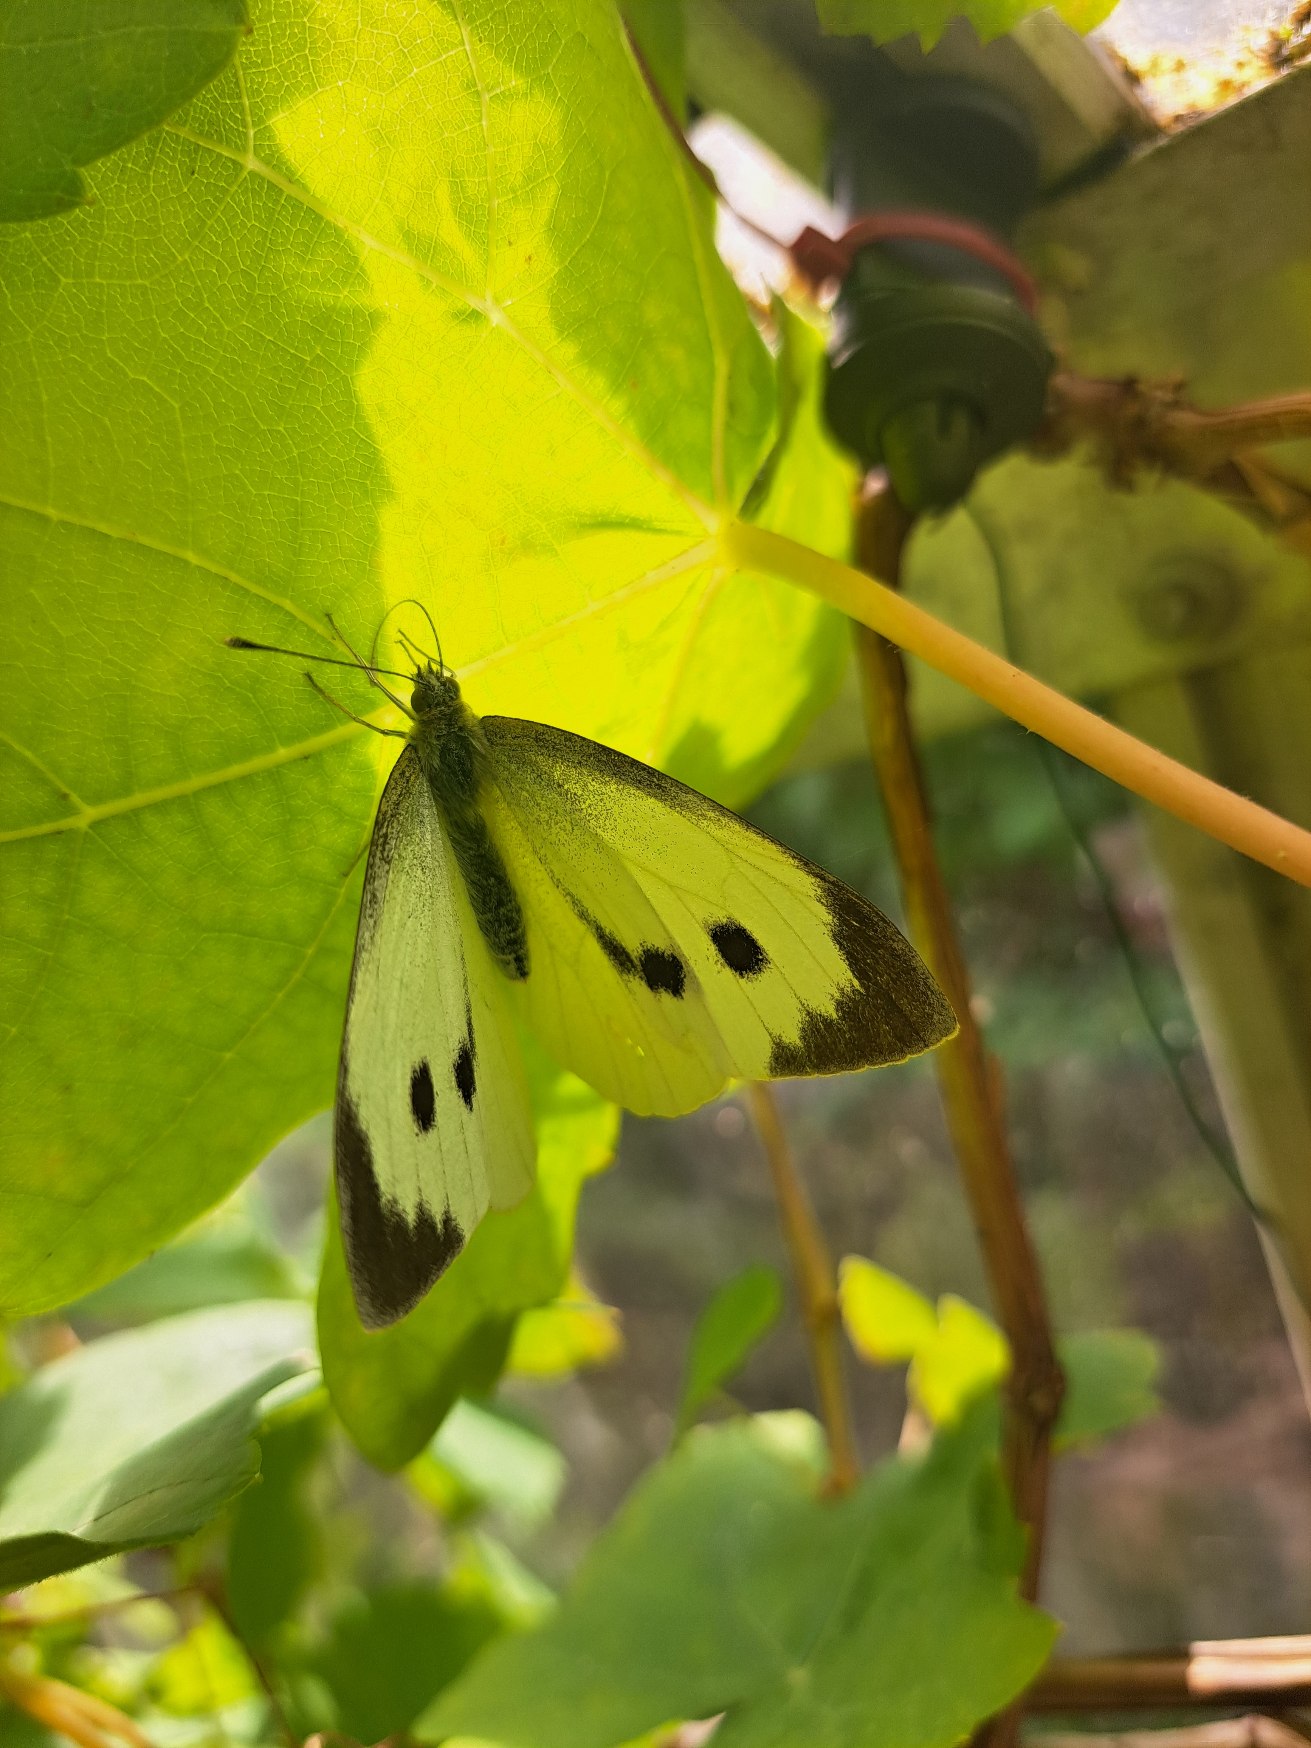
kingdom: Animalia
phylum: Arthropoda
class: Insecta
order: Lepidoptera
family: Pieridae
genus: Pieris
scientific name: Pieris brassicae
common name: Stor kålsommerfugl
